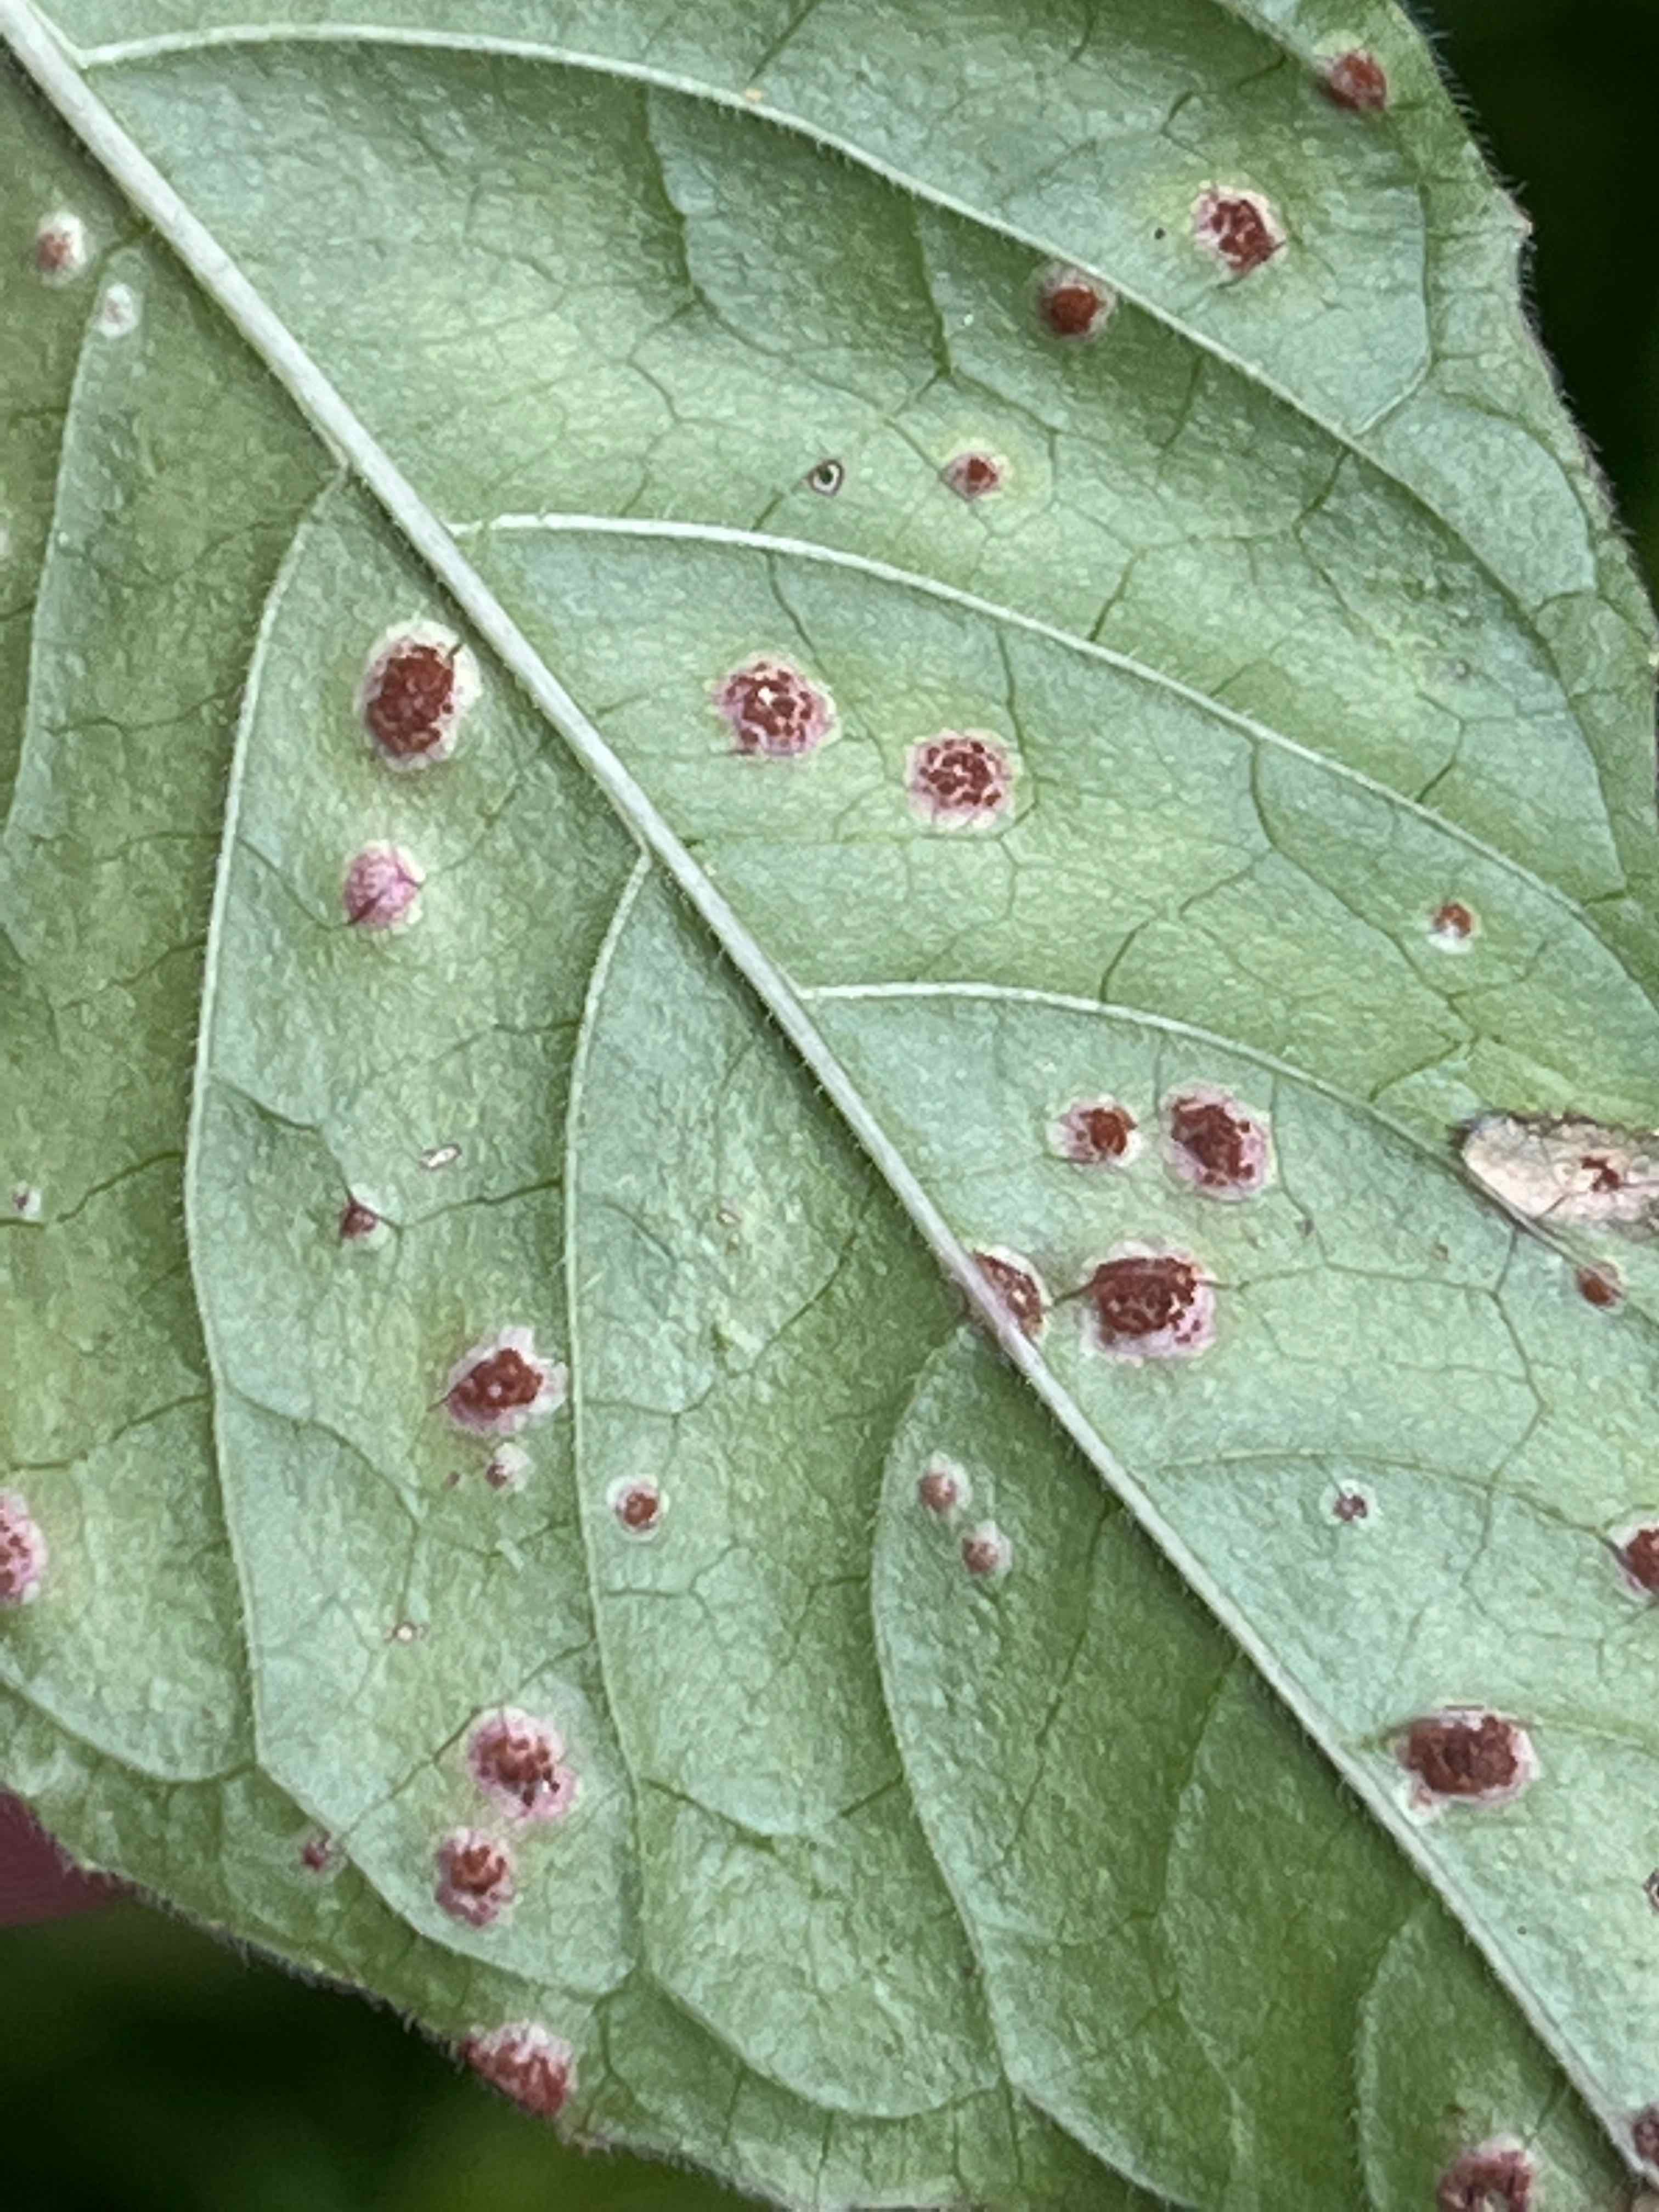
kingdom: Fungi
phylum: Basidiomycota
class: Pucciniomycetes
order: Pucciniales
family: Pucciniaceae
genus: Puccinia
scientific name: Puccinia circaeae
